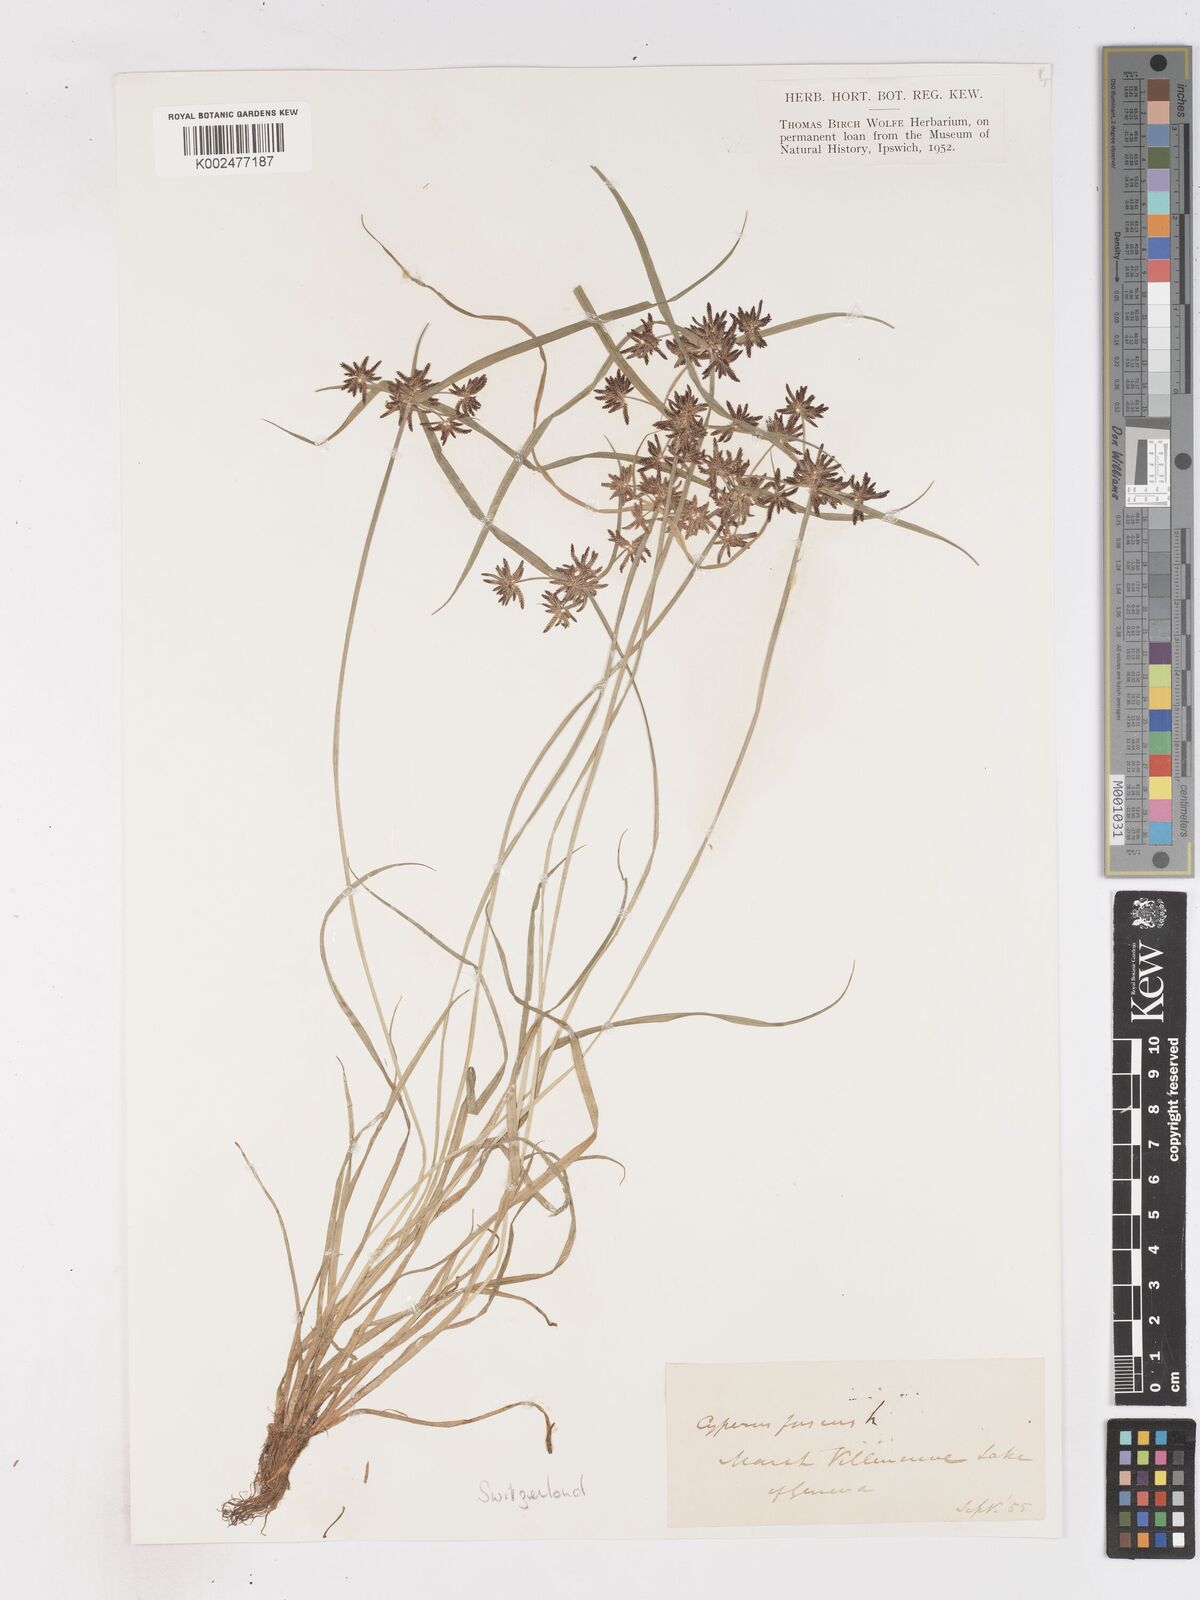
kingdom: Plantae
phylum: Tracheophyta
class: Liliopsida
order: Poales
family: Cyperaceae
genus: Cyperus
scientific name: Cyperus fuscus
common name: Brown galingale
